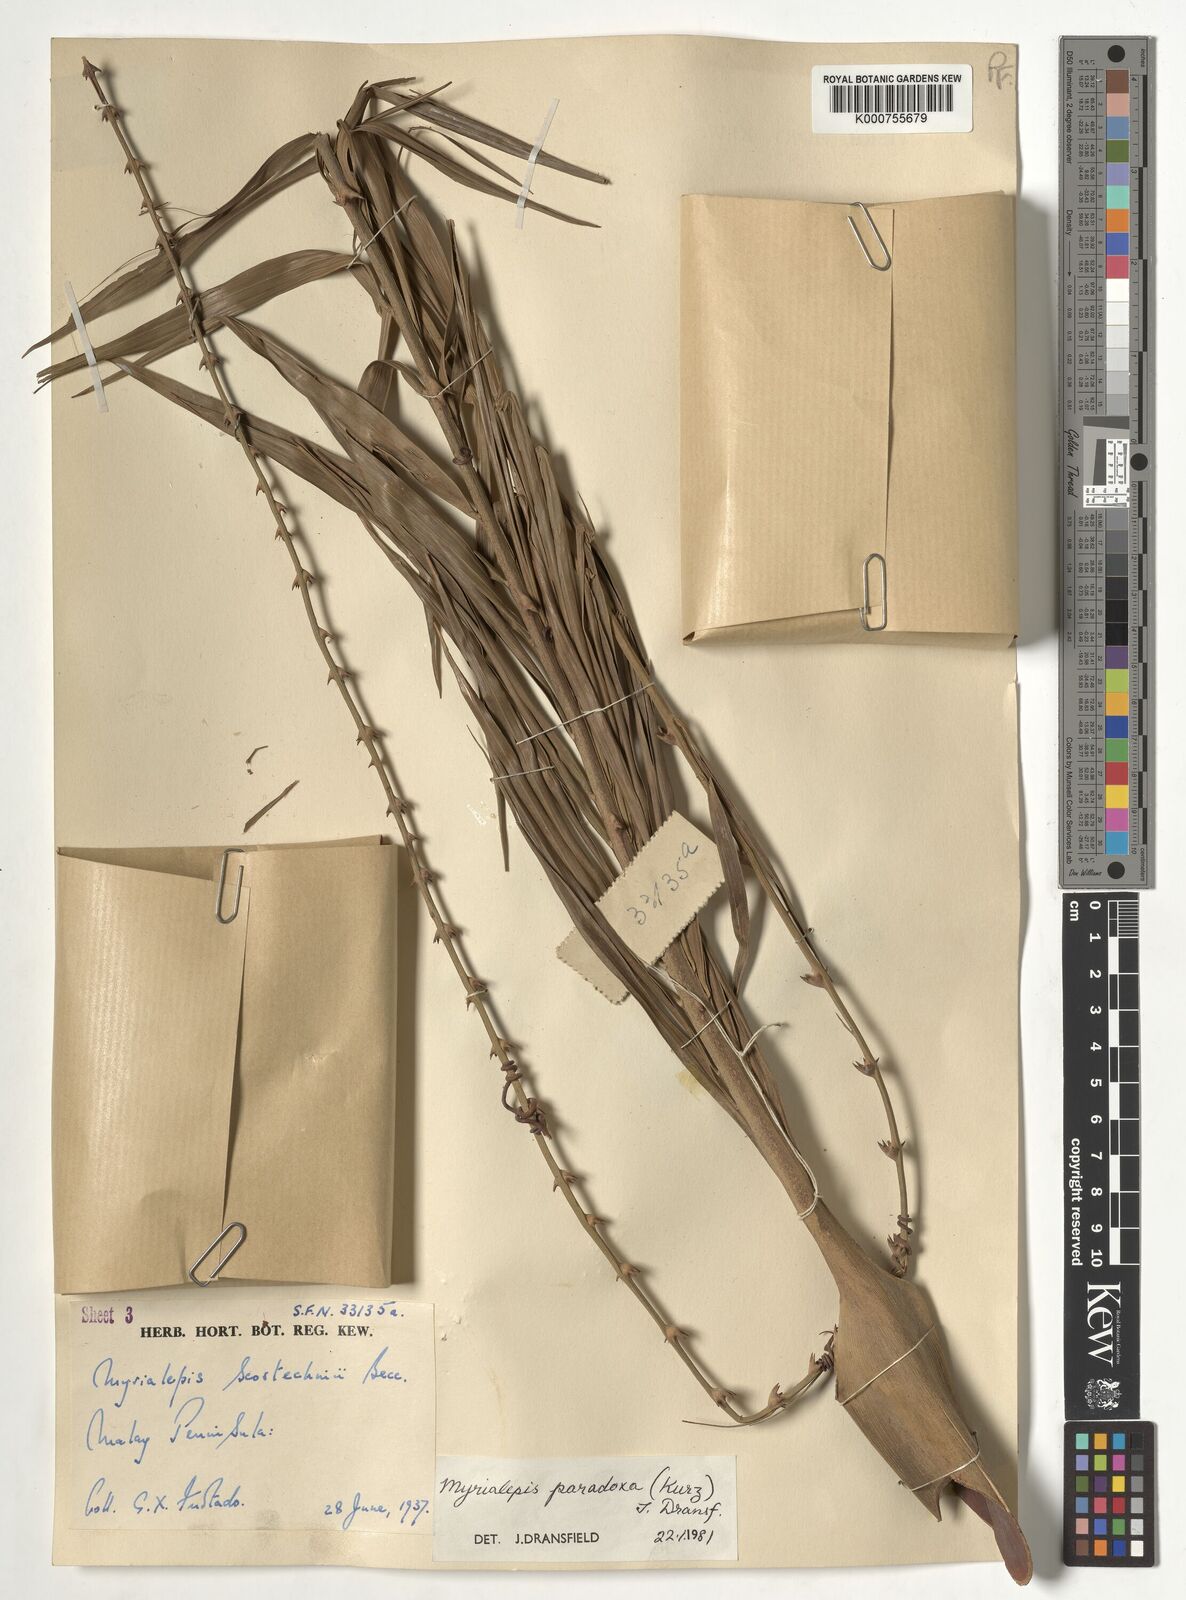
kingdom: Plantae
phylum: Tracheophyta
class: Liliopsida
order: Arecales
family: Arecaceae
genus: Myrialepis
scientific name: Myrialepis paradoxa
